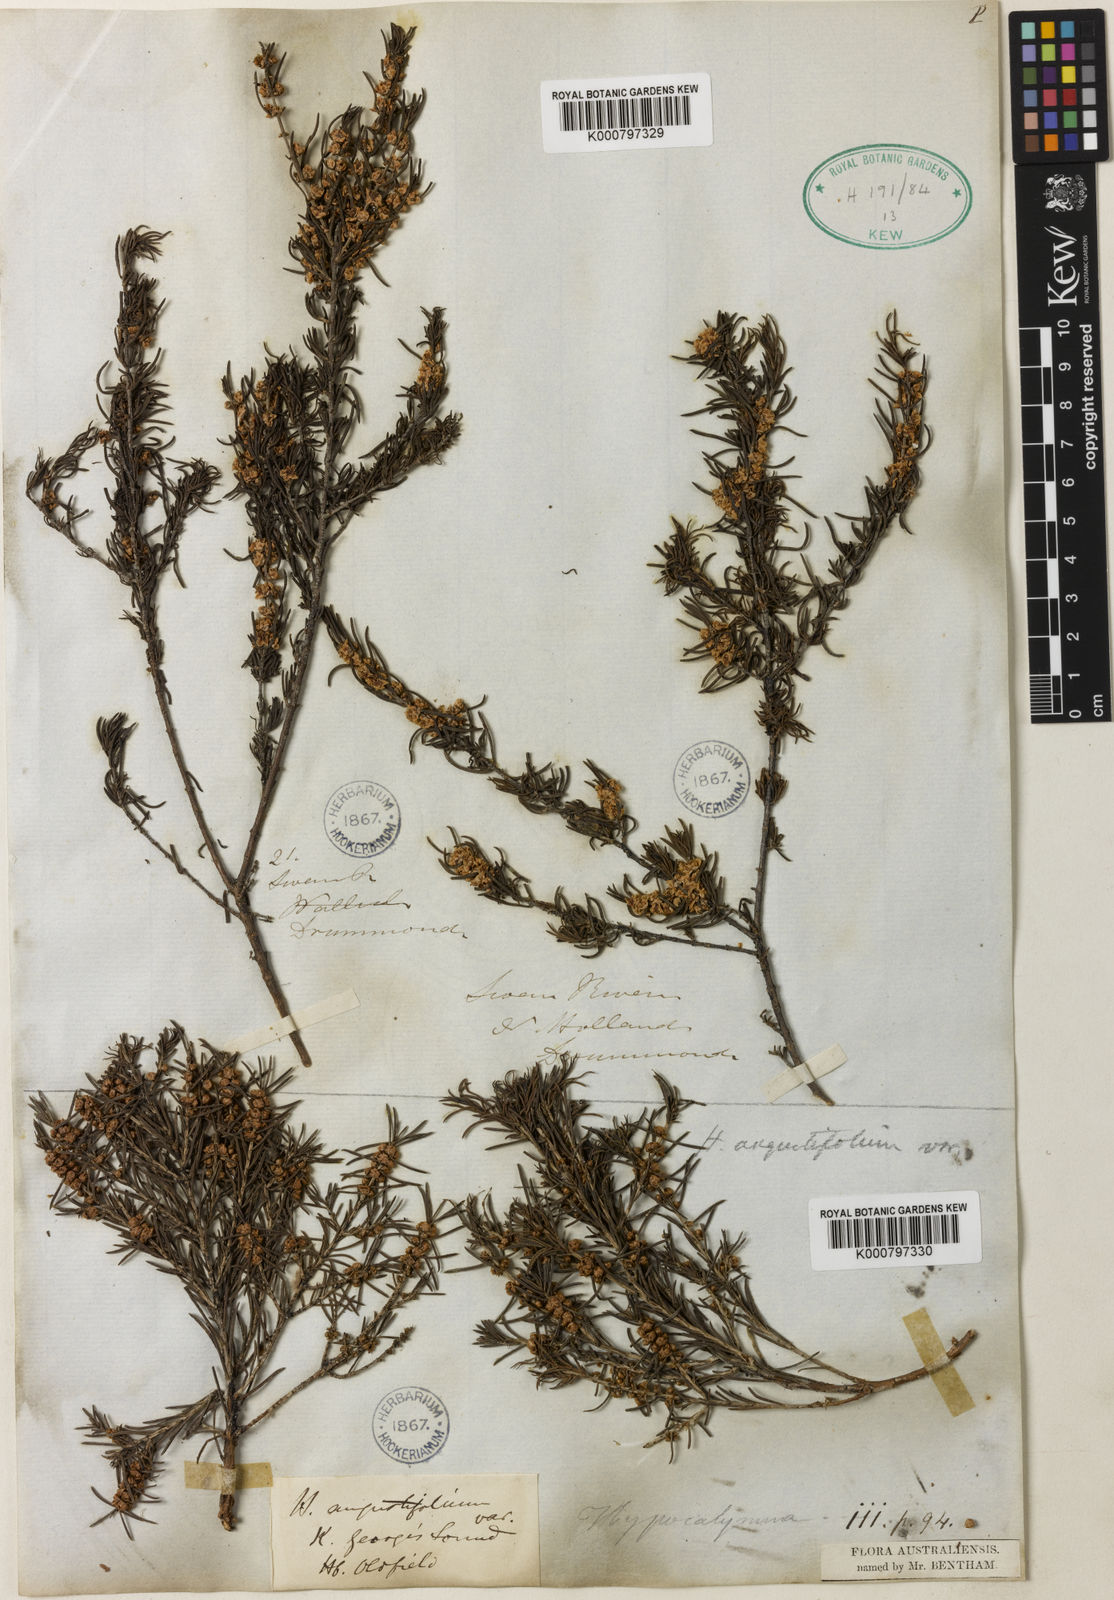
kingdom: Plantae
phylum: Tracheophyta
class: Magnoliopsida
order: Myrtales
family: Myrtaceae
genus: Hypocalymma
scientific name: Hypocalymma angustifolium
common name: White myrtle
